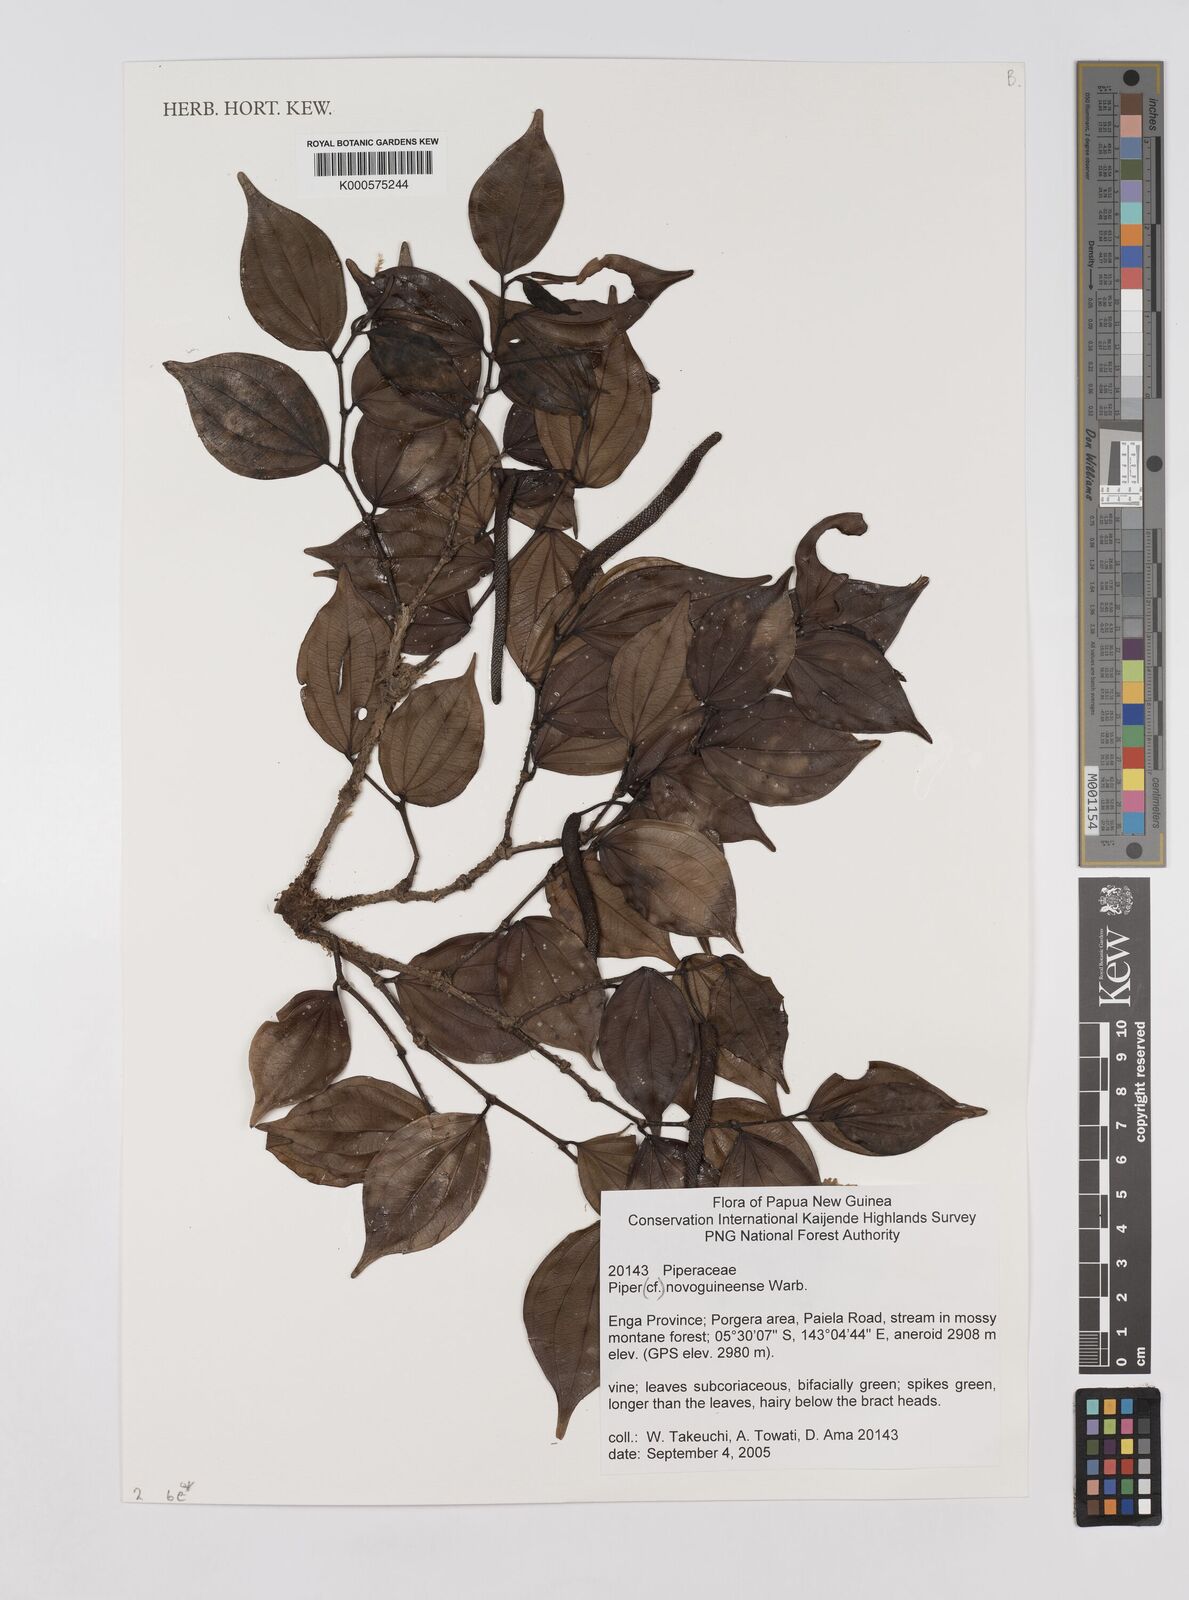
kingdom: Plantae
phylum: Tracheophyta
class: Magnoliopsida
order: Piperales
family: Piperaceae
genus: Piper
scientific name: Piper macropiper
